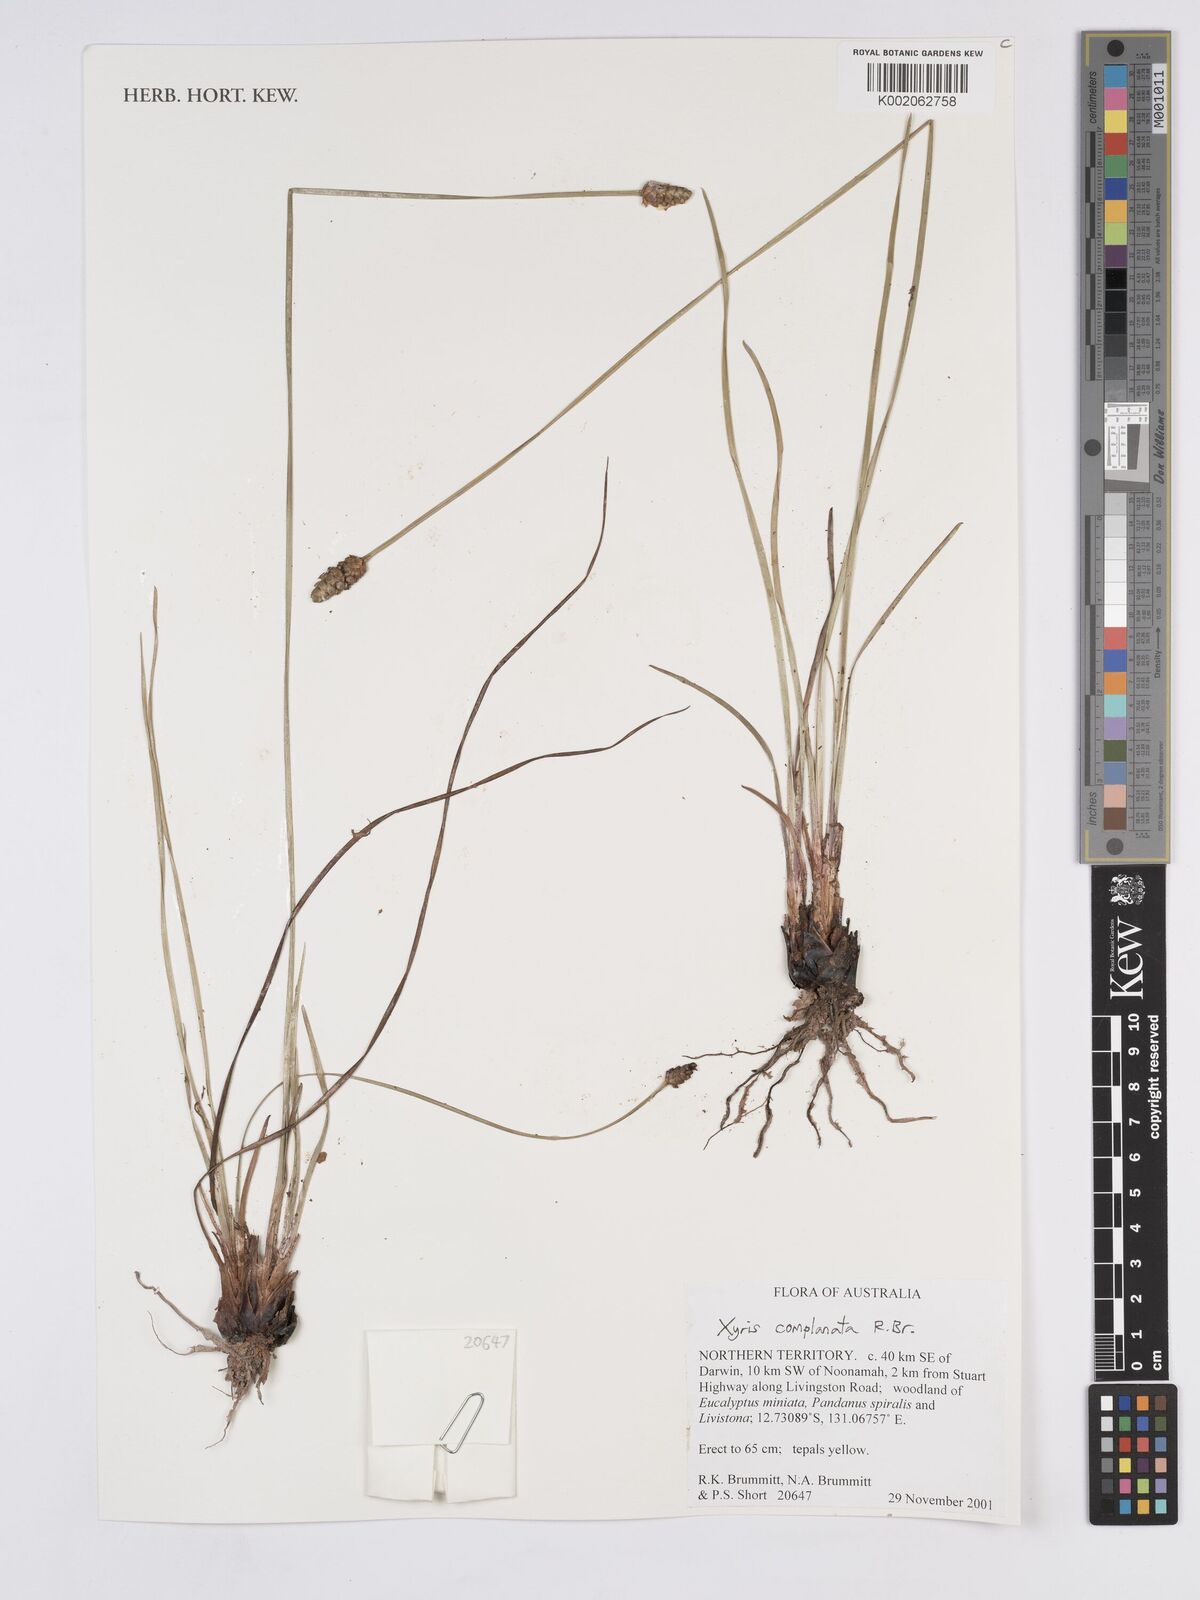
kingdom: Plantae
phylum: Tracheophyta
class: Liliopsida
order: Poales
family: Xyridaceae
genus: Xyris
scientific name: Xyris complanata
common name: Hawai'i yelloweyed grass
